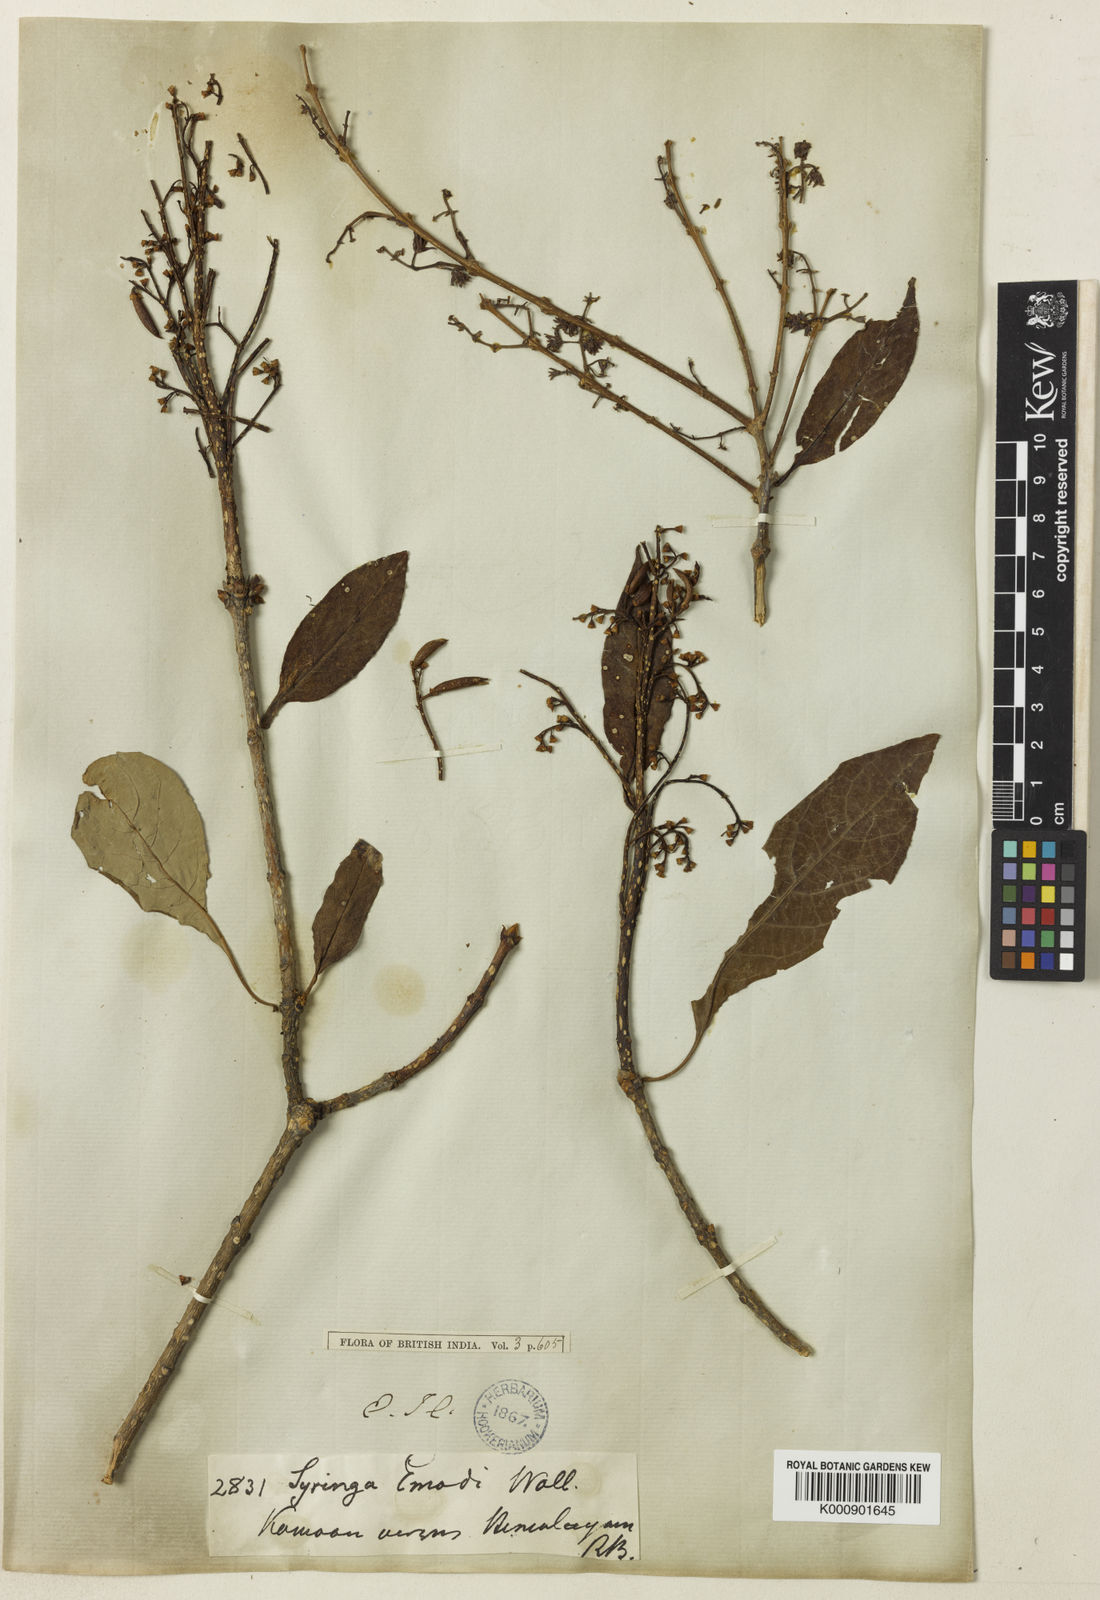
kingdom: Plantae
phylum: Tracheophyta
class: Magnoliopsida
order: Lamiales
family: Oleaceae
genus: Syringa
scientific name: Syringa
